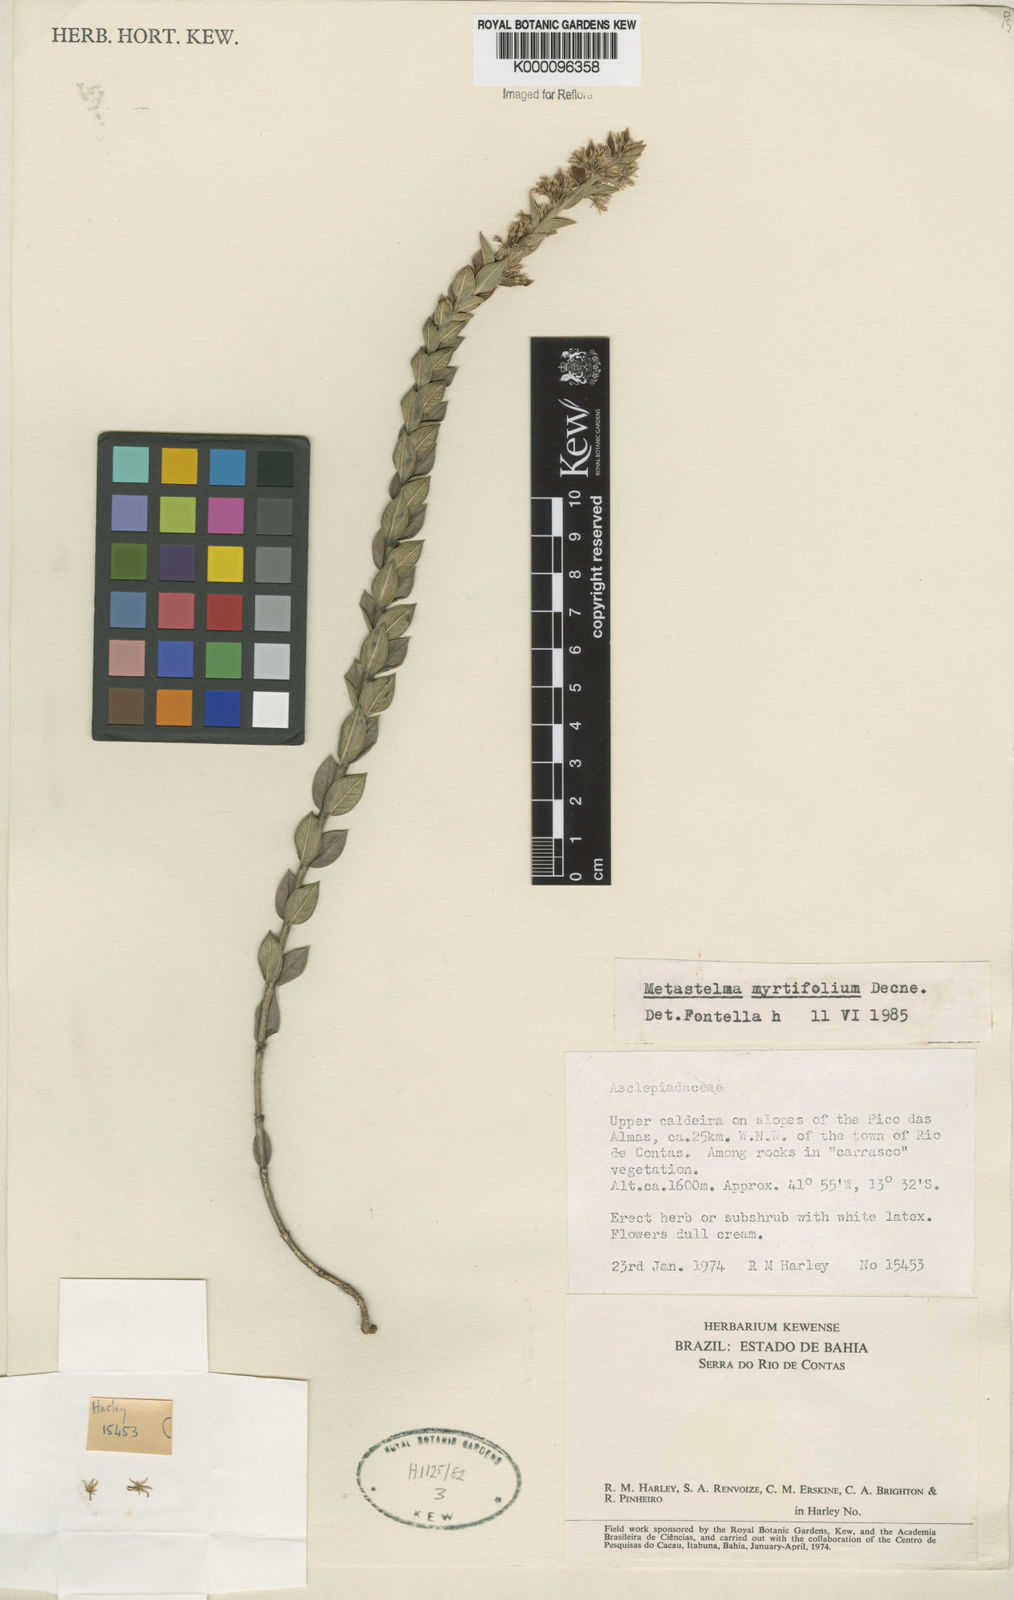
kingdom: Plantae
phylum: Tracheophyta
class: Magnoliopsida
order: Gentianales
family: Apocynaceae
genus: Metastelma
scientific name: Metastelma myrtifolium
